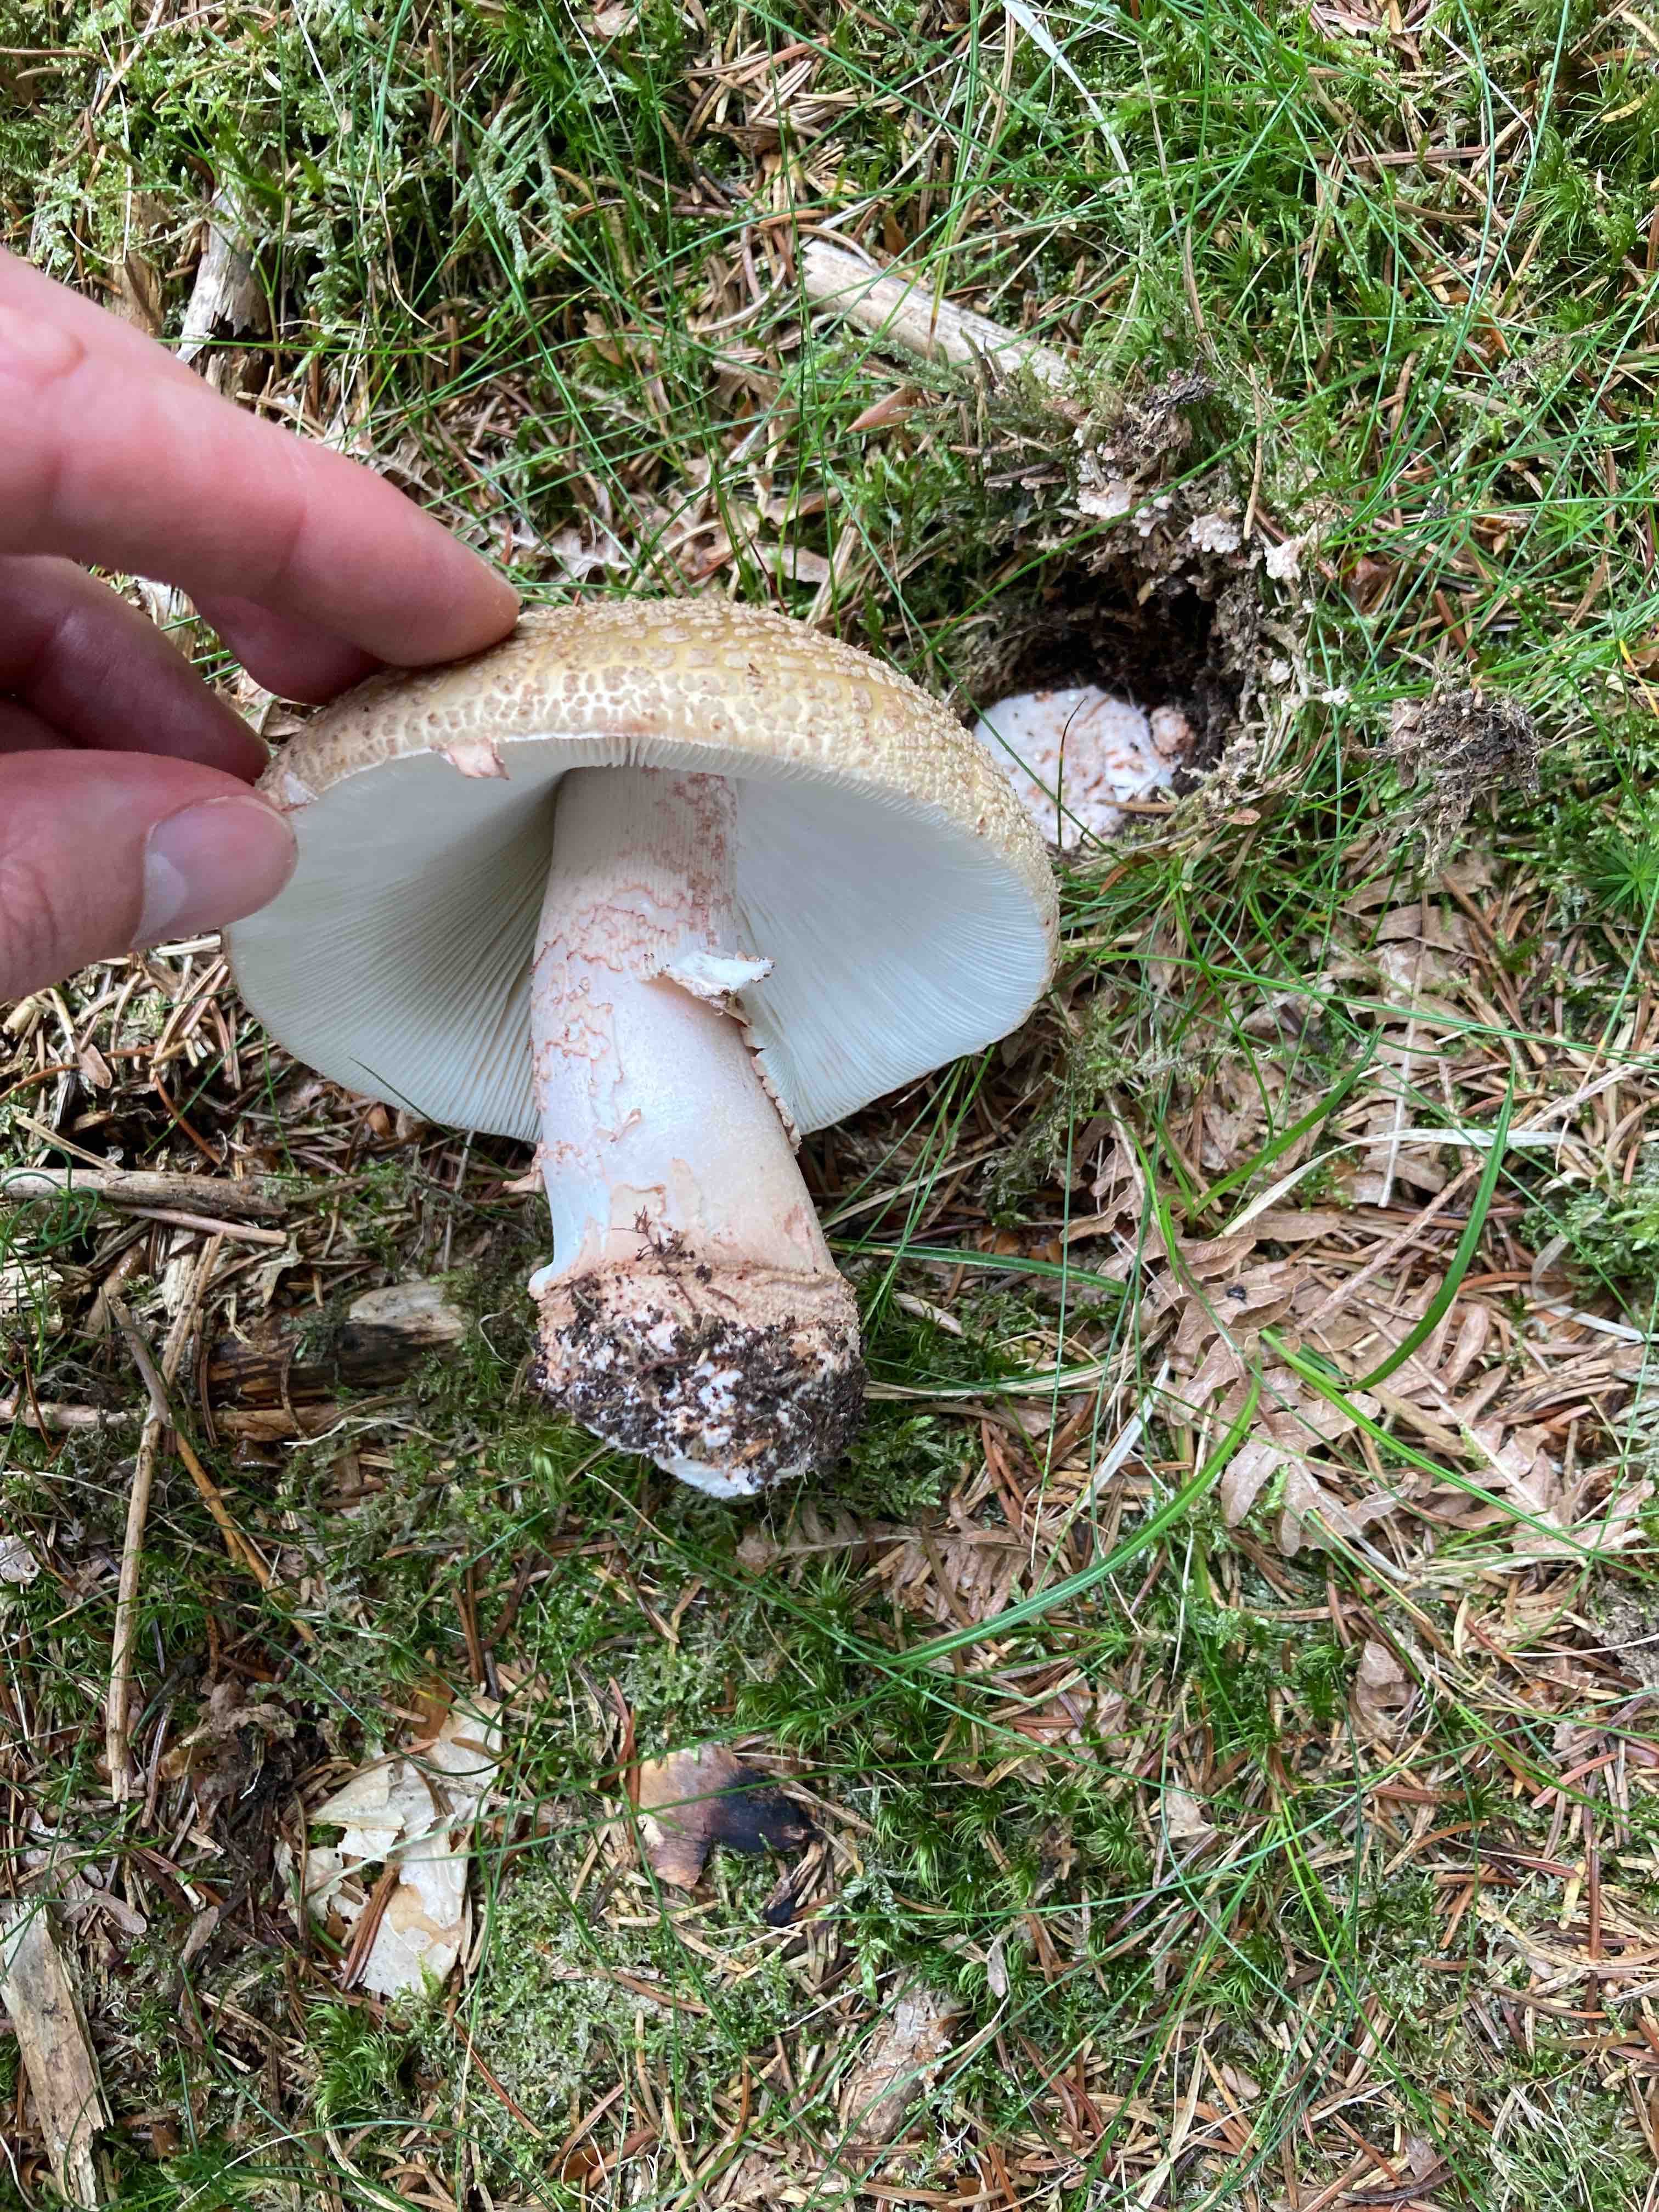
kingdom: Fungi
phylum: Basidiomycota
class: Agaricomycetes
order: Agaricales
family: Amanitaceae
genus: Amanita
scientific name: Amanita rubescens
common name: rødmende fluesvamp
